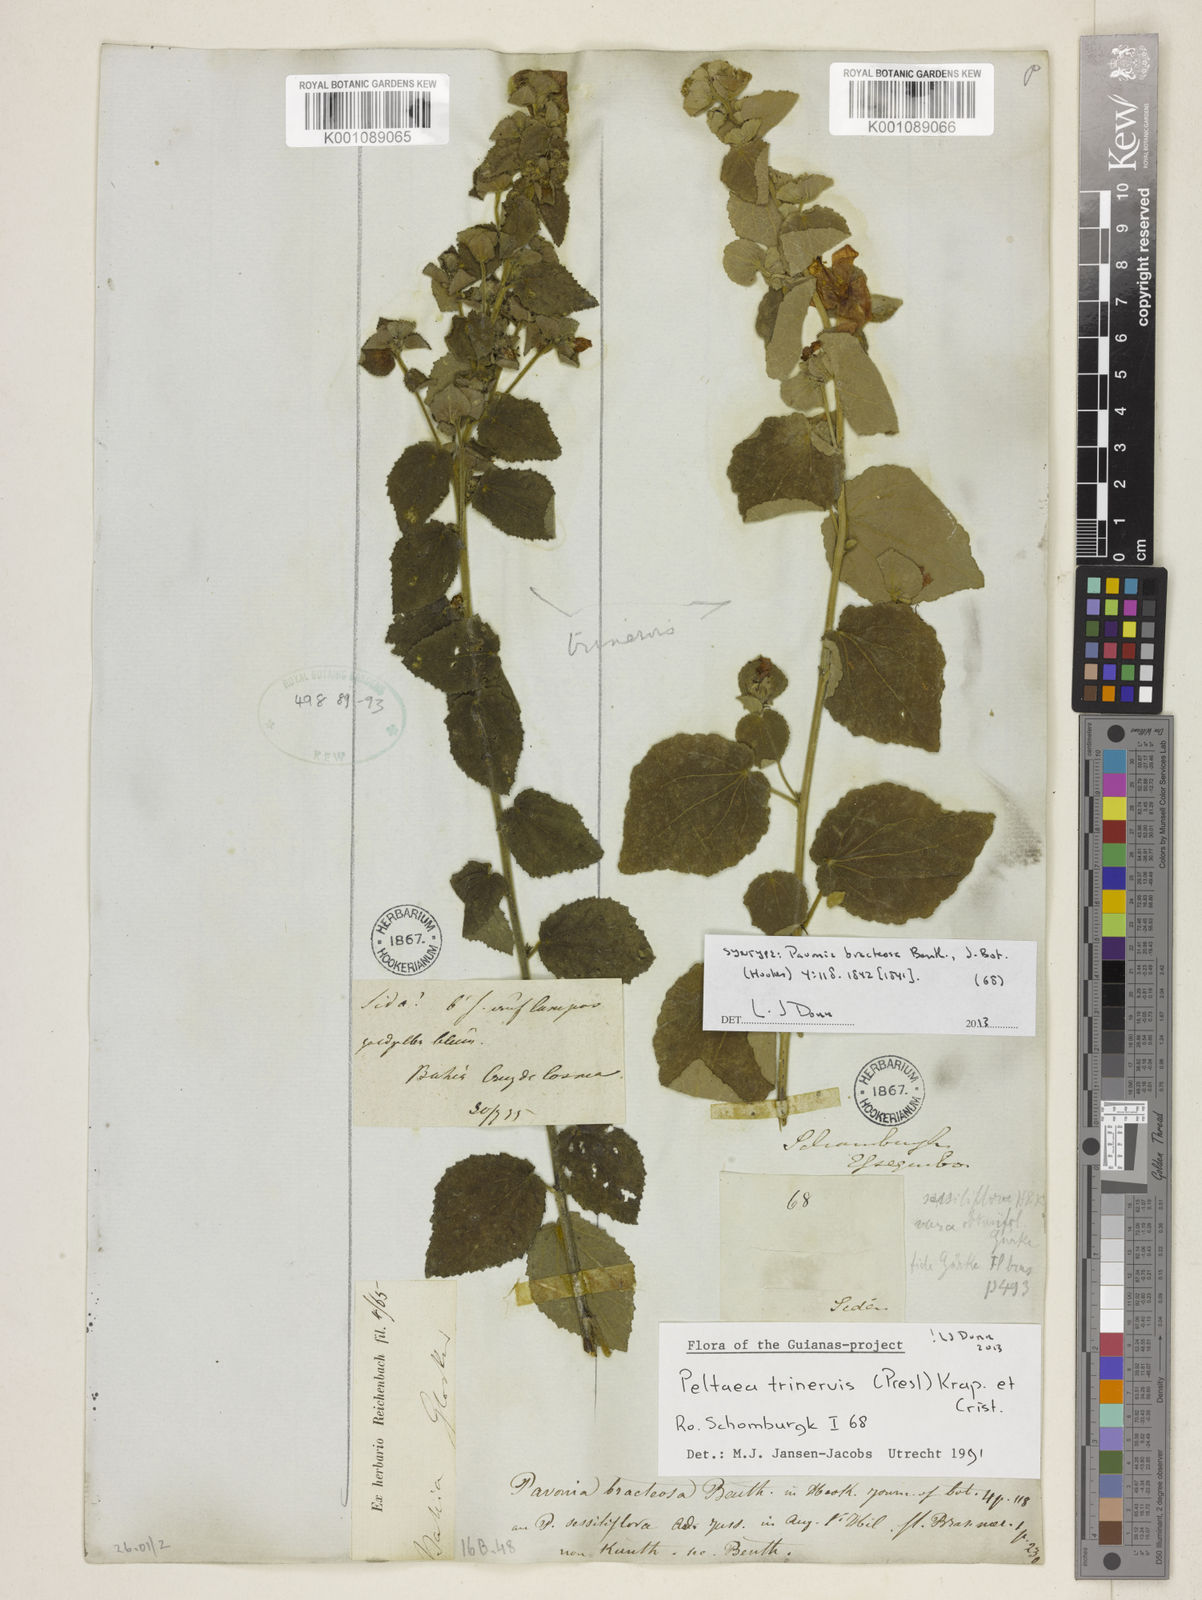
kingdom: Plantae
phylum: Tracheophyta
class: Magnoliopsida
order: Malvales
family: Malvaceae
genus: Peltaea
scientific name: Peltaea
